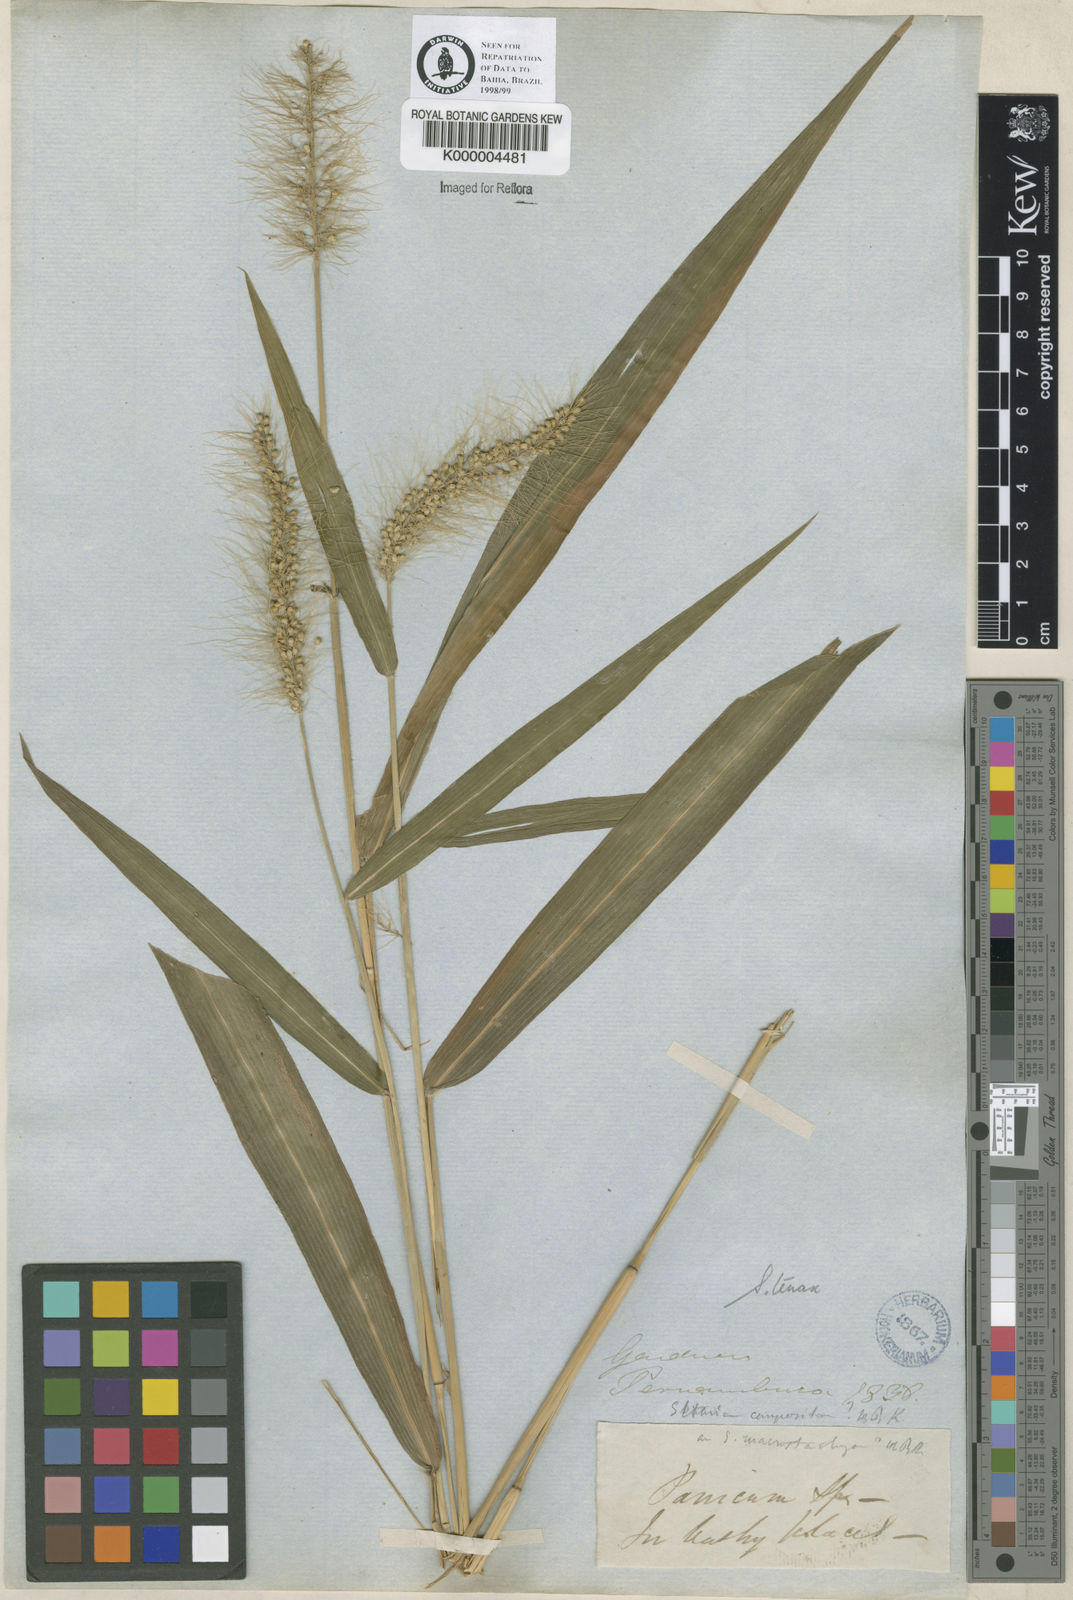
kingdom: Plantae
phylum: Tracheophyta
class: Liliopsida
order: Poales
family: Poaceae
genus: Setaria
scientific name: Setaria tenax
